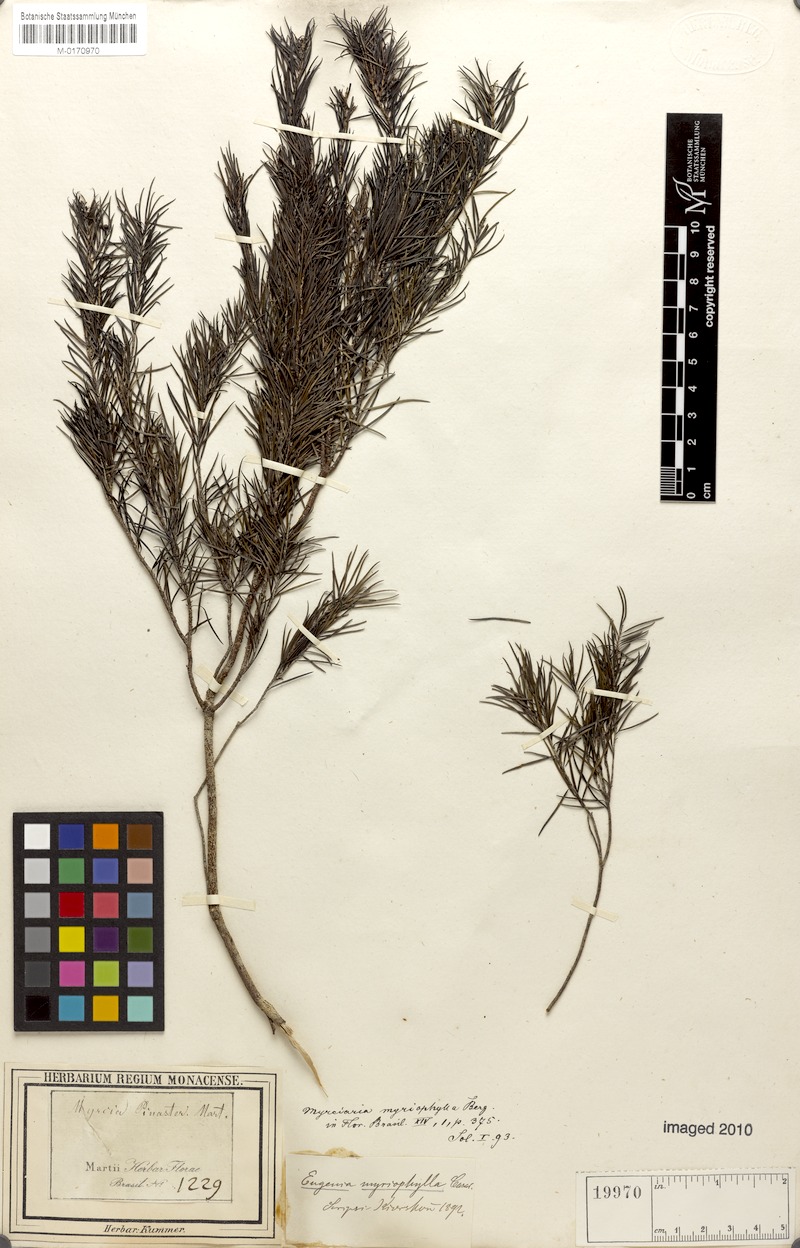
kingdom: Plantae
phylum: Tracheophyta
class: Magnoliopsida
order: Myrtales
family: Myrtaceae
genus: Blepharocalyx
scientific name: Blepharocalyx myriophyllus
